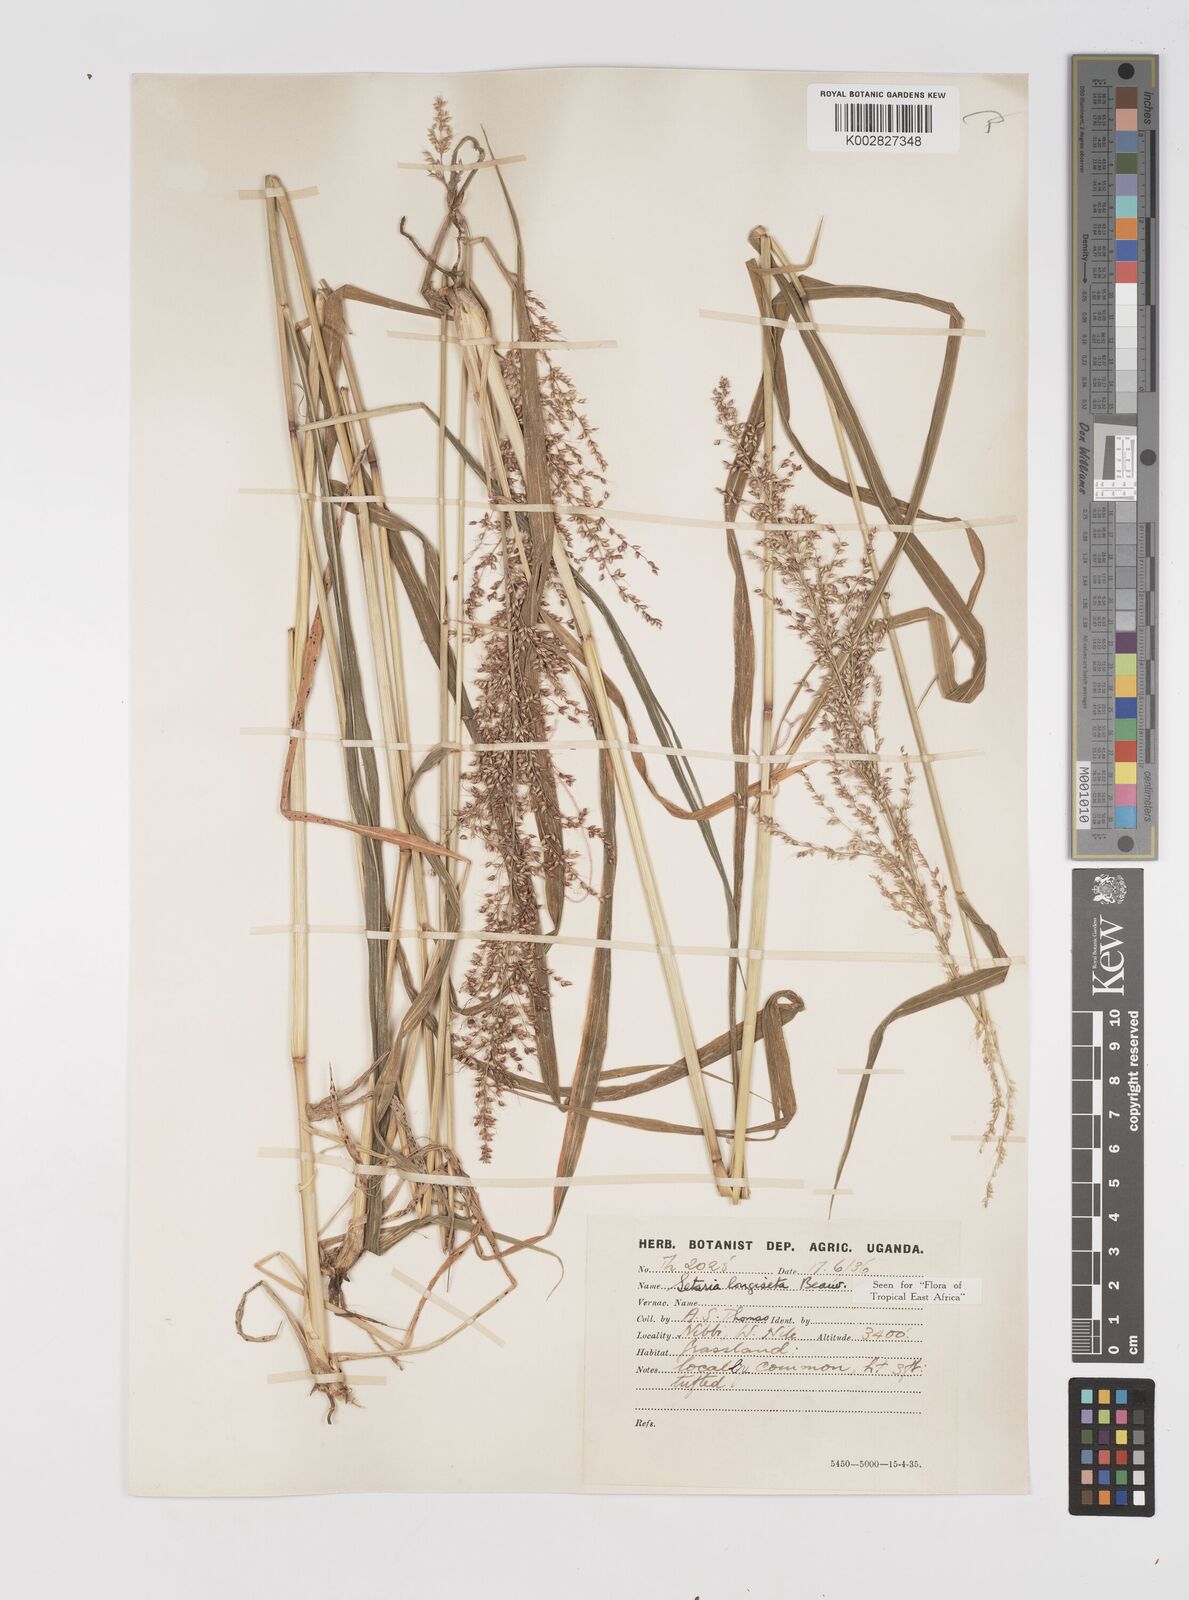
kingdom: Plantae
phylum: Tracheophyta
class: Liliopsida
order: Poales
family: Poaceae
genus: Setaria
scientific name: Setaria longiseta
